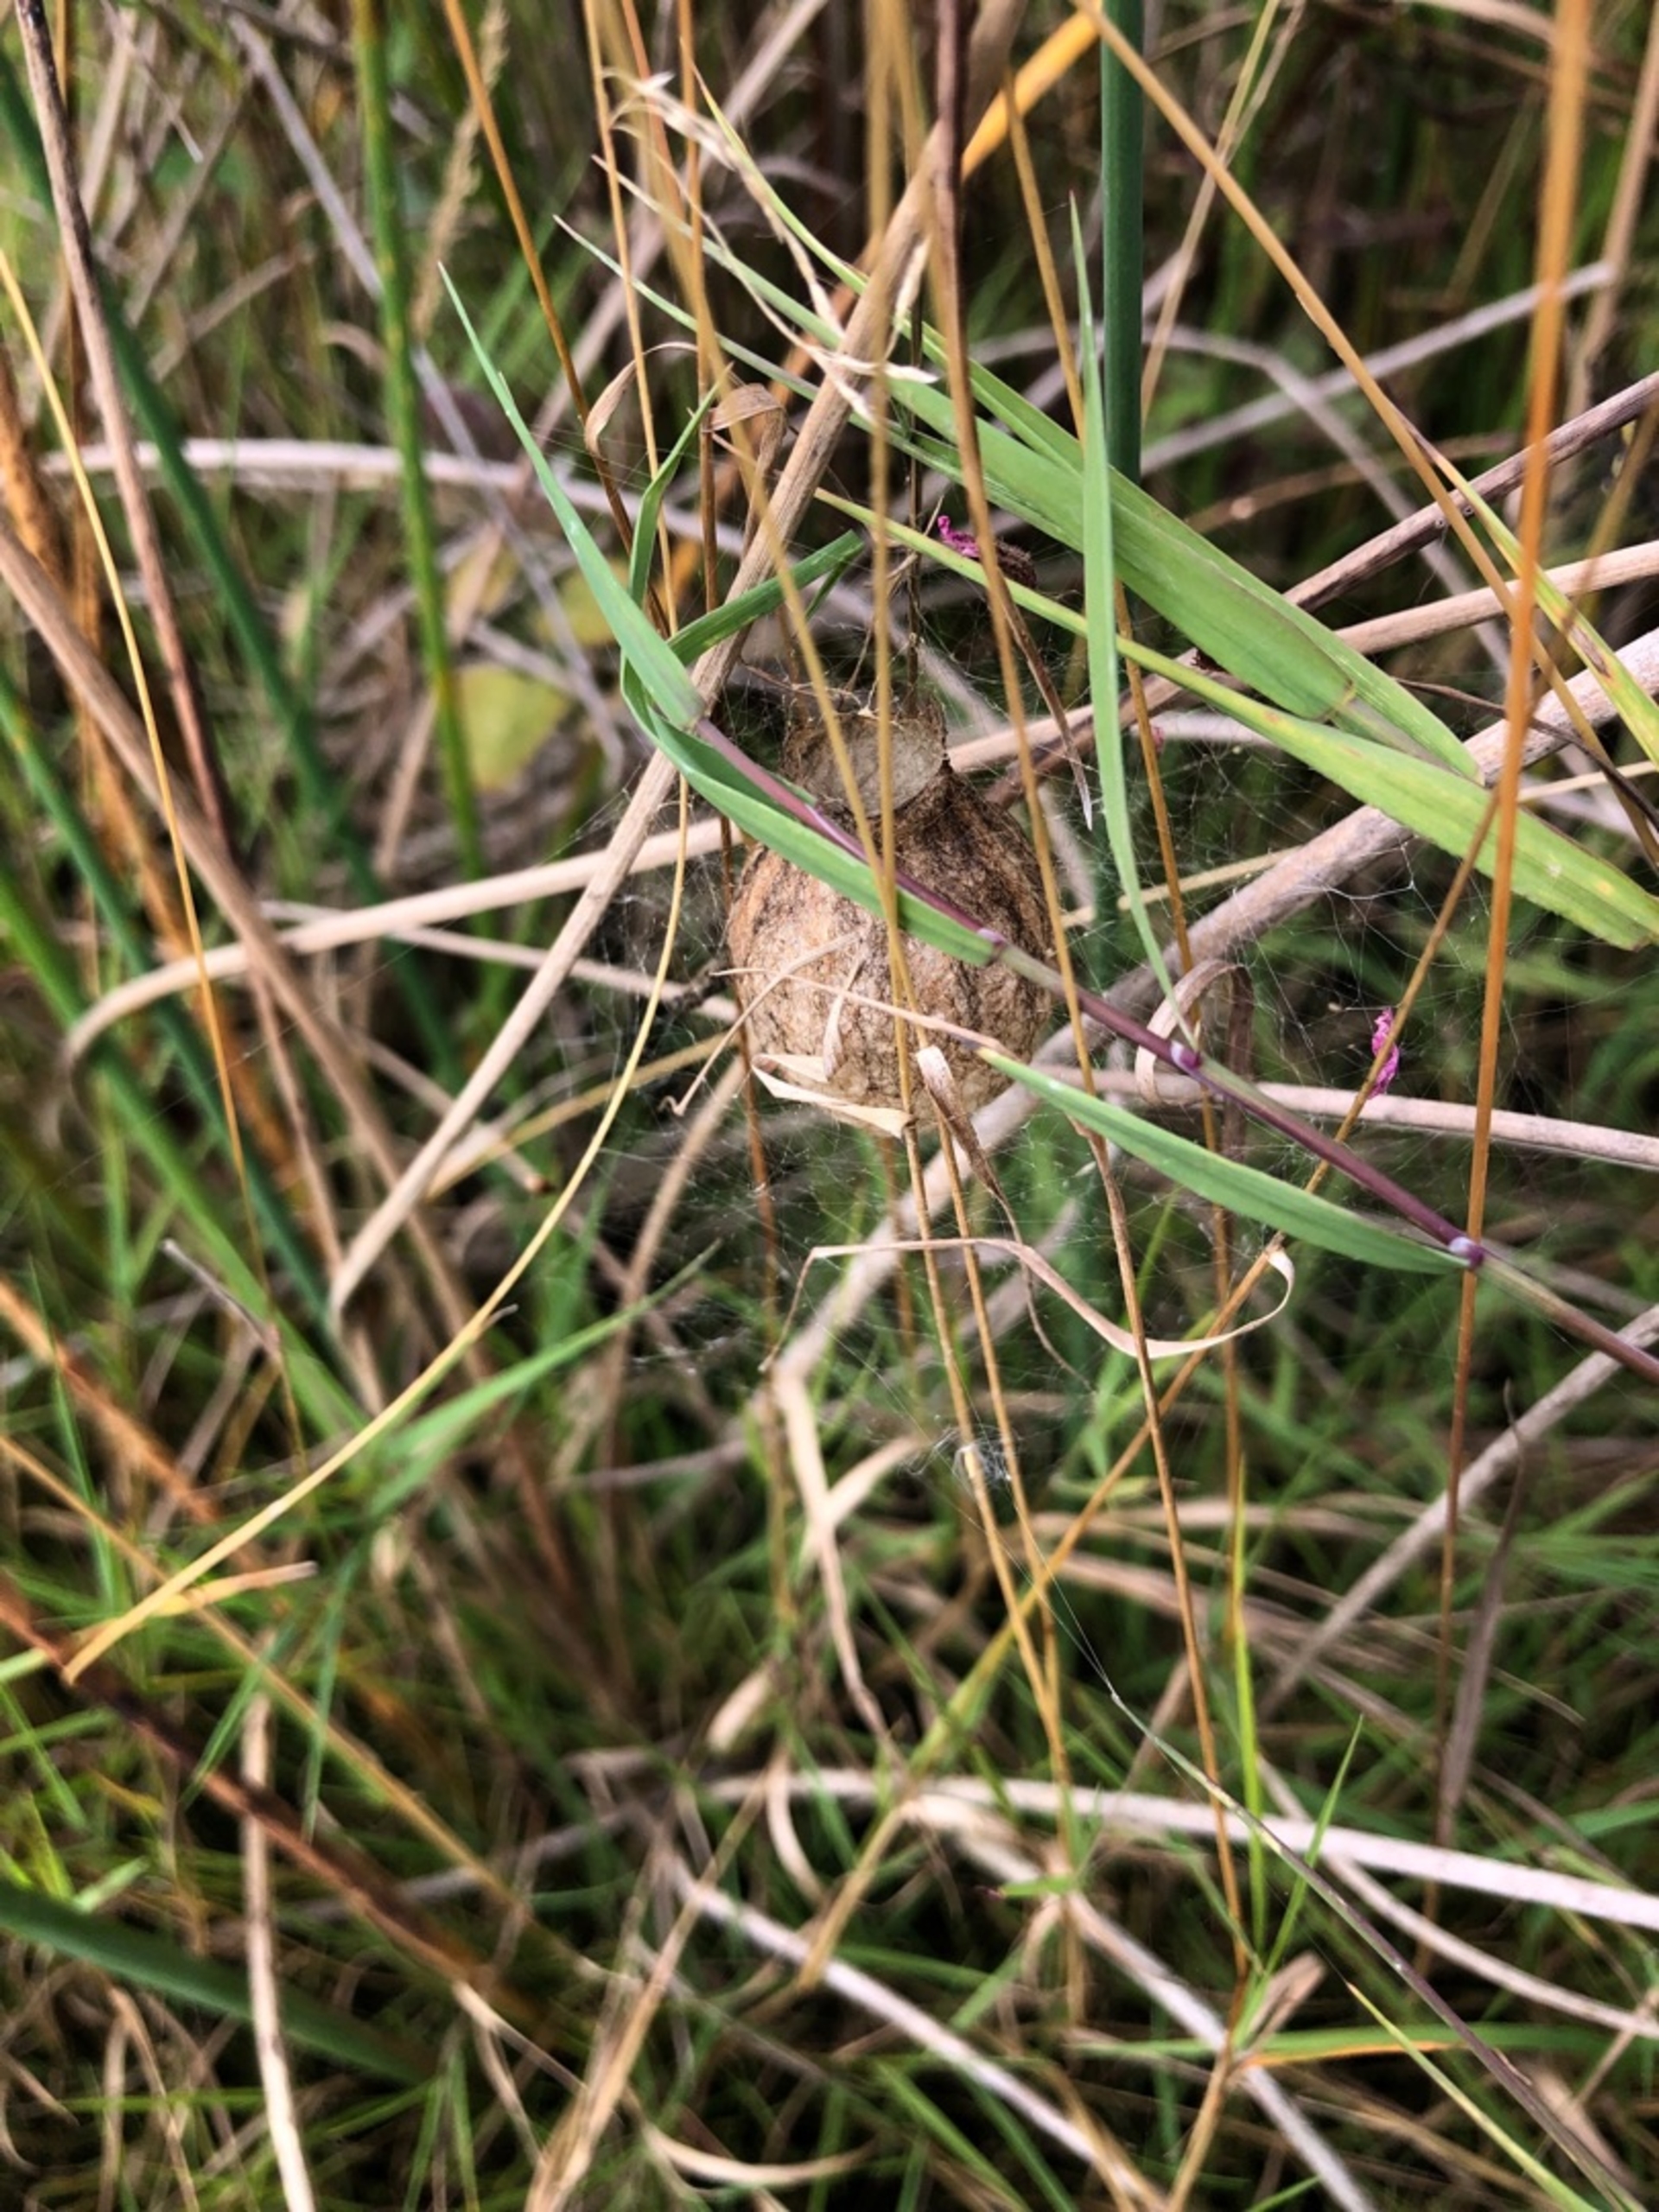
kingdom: Animalia
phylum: Arthropoda
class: Arachnida
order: Araneae
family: Araneidae
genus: Argiope
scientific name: Argiope bruennichi
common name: Hvepseedderkop
